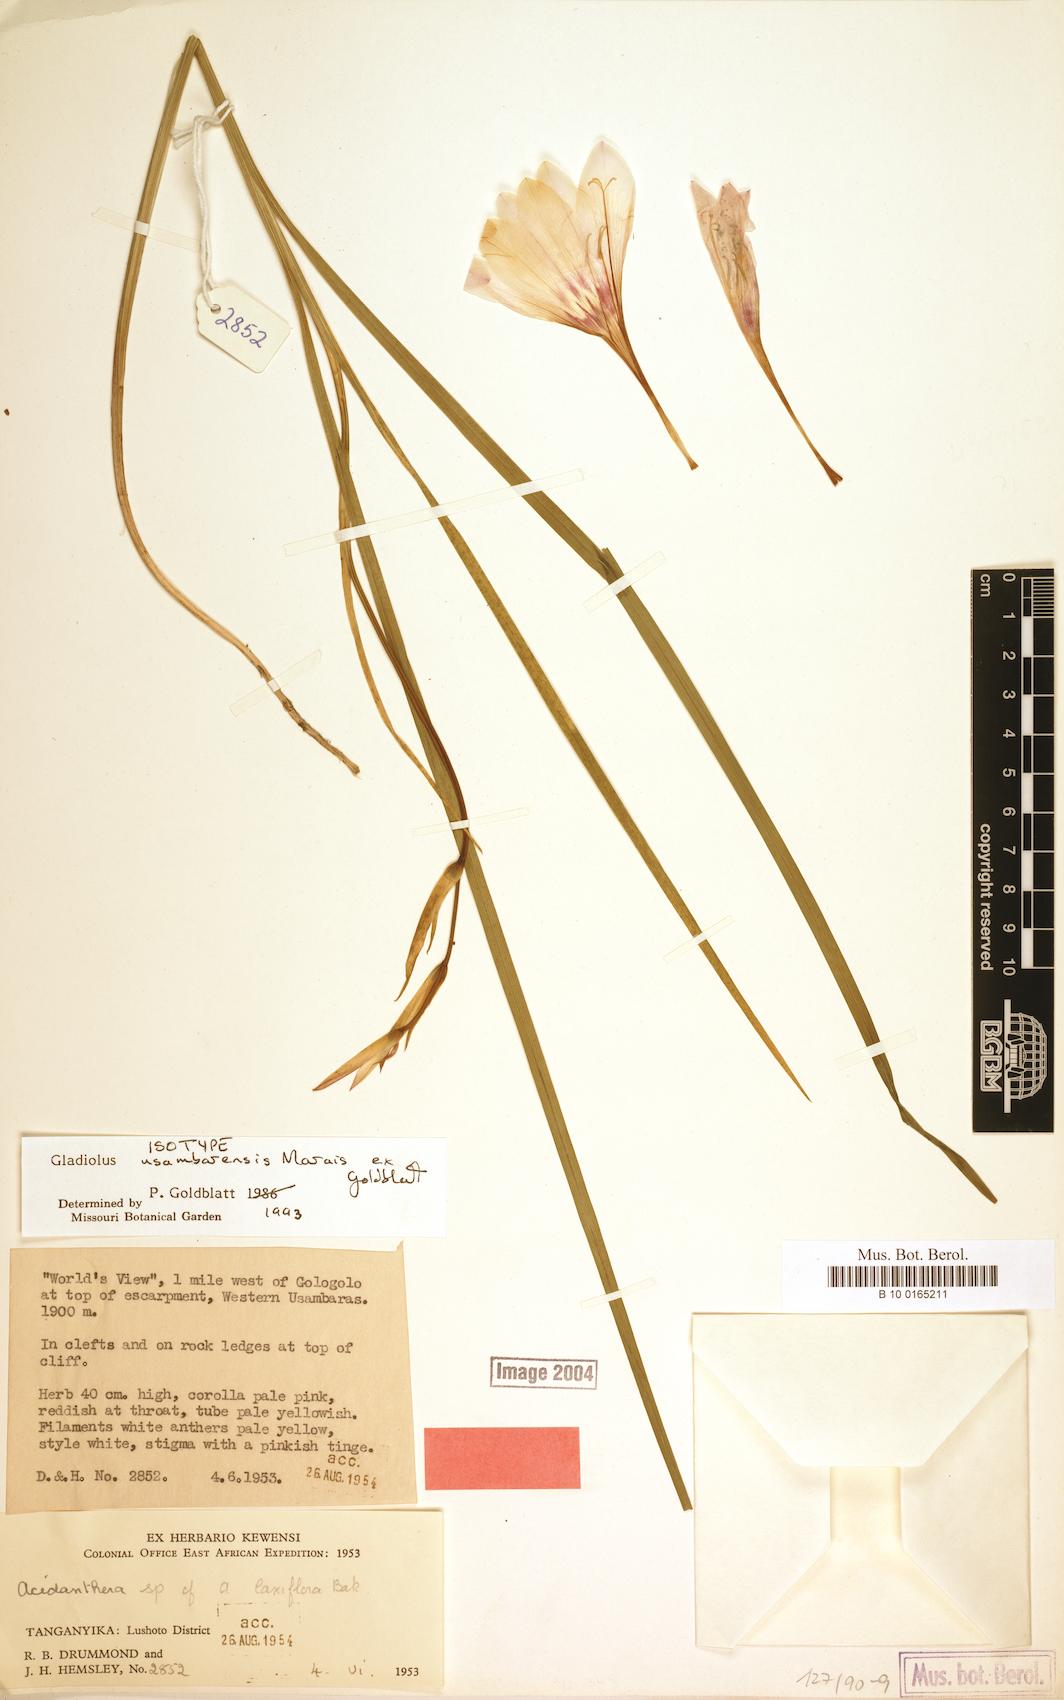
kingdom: Plantae
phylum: Tracheophyta
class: Liliopsida
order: Asparagales
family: Iridaceae
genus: Gladiolus
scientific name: Gladiolus usambarensis
